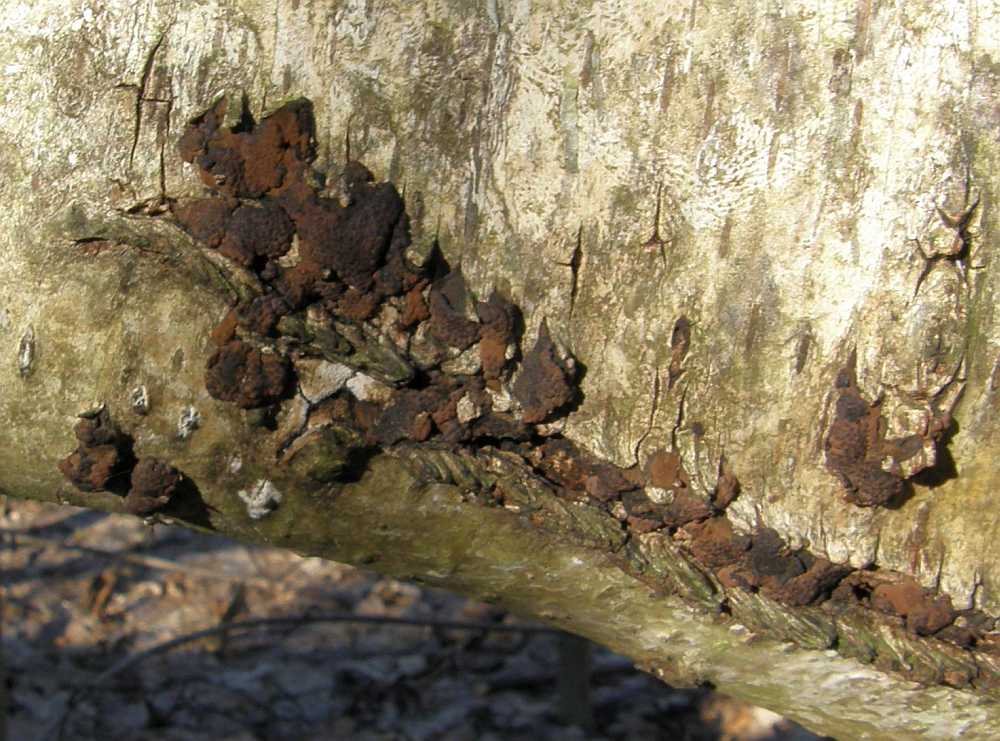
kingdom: Fungi
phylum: Ascomycota
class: Sordariomycetes
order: Xylariales
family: Hypoxylaceae
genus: Jackrogersella
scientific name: Jackrogersella multiformis
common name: foranderlig kulbær
